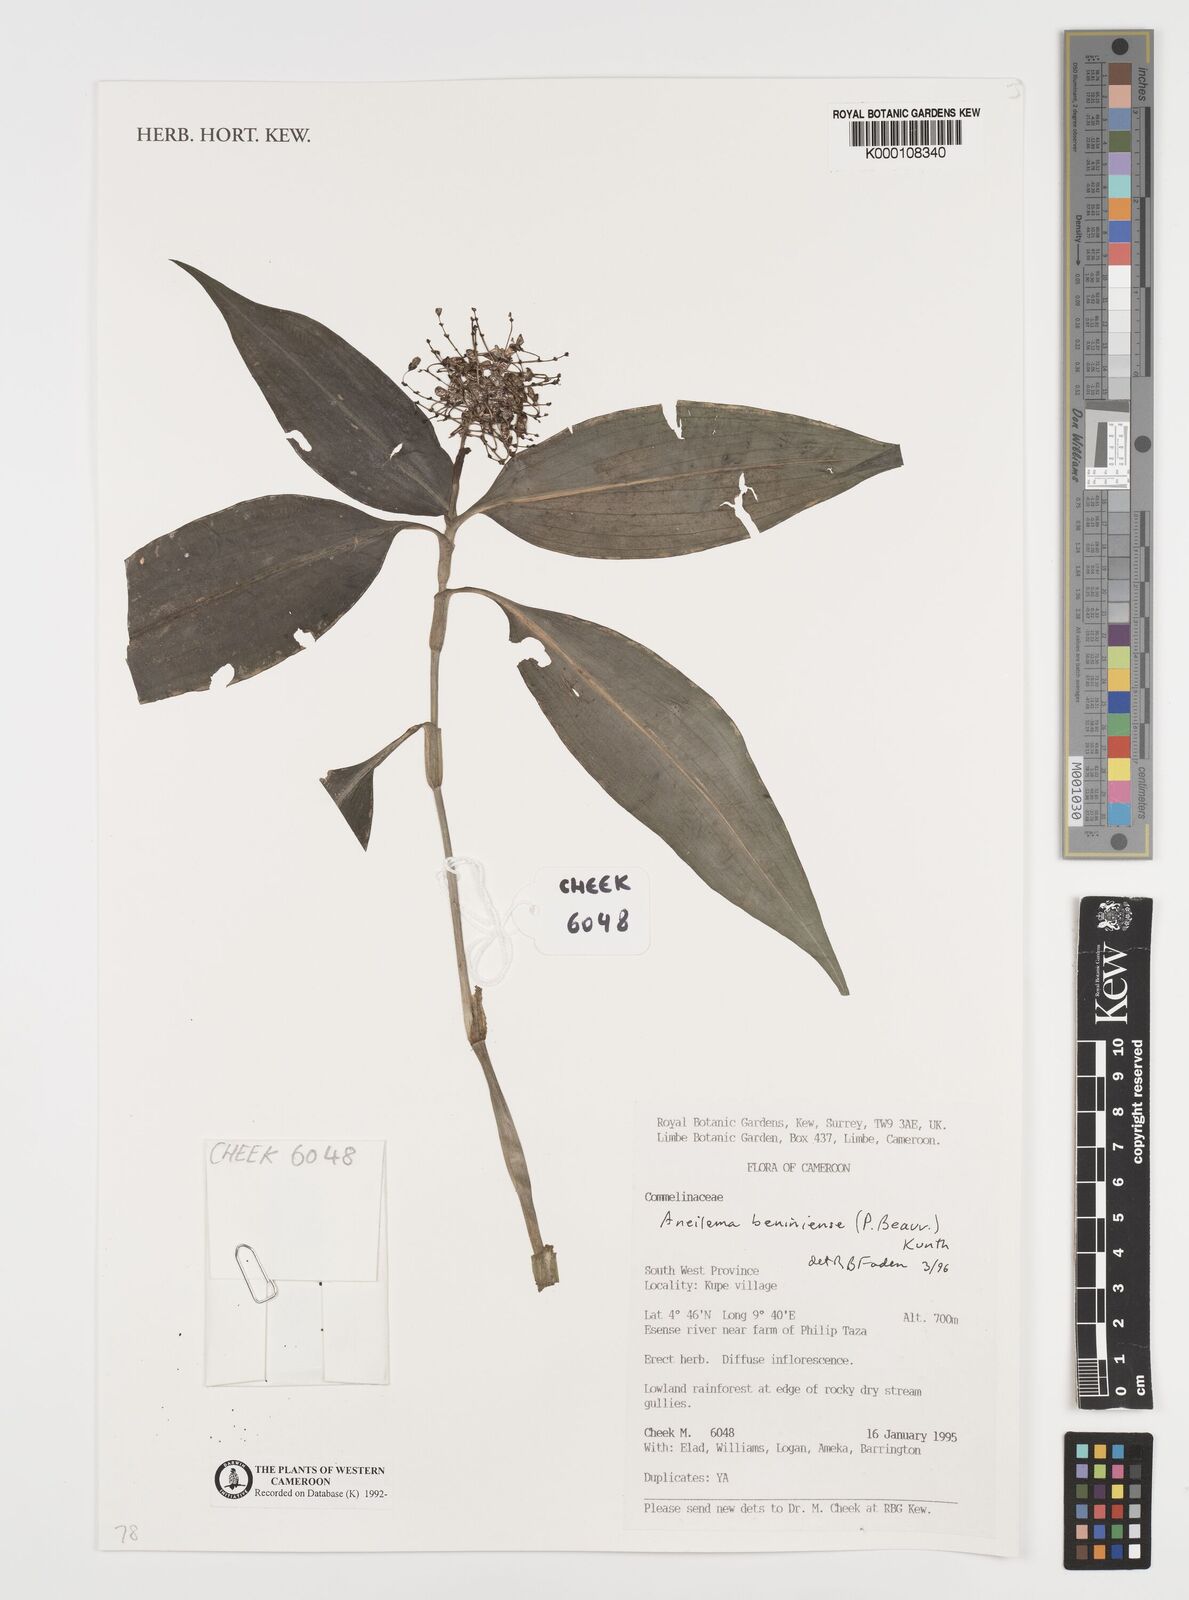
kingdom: Plantae
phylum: Tracheophyta
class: Liliopsida
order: Commelinales
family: Commelinaceae
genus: Aneilema
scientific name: Aneilema beniniense
